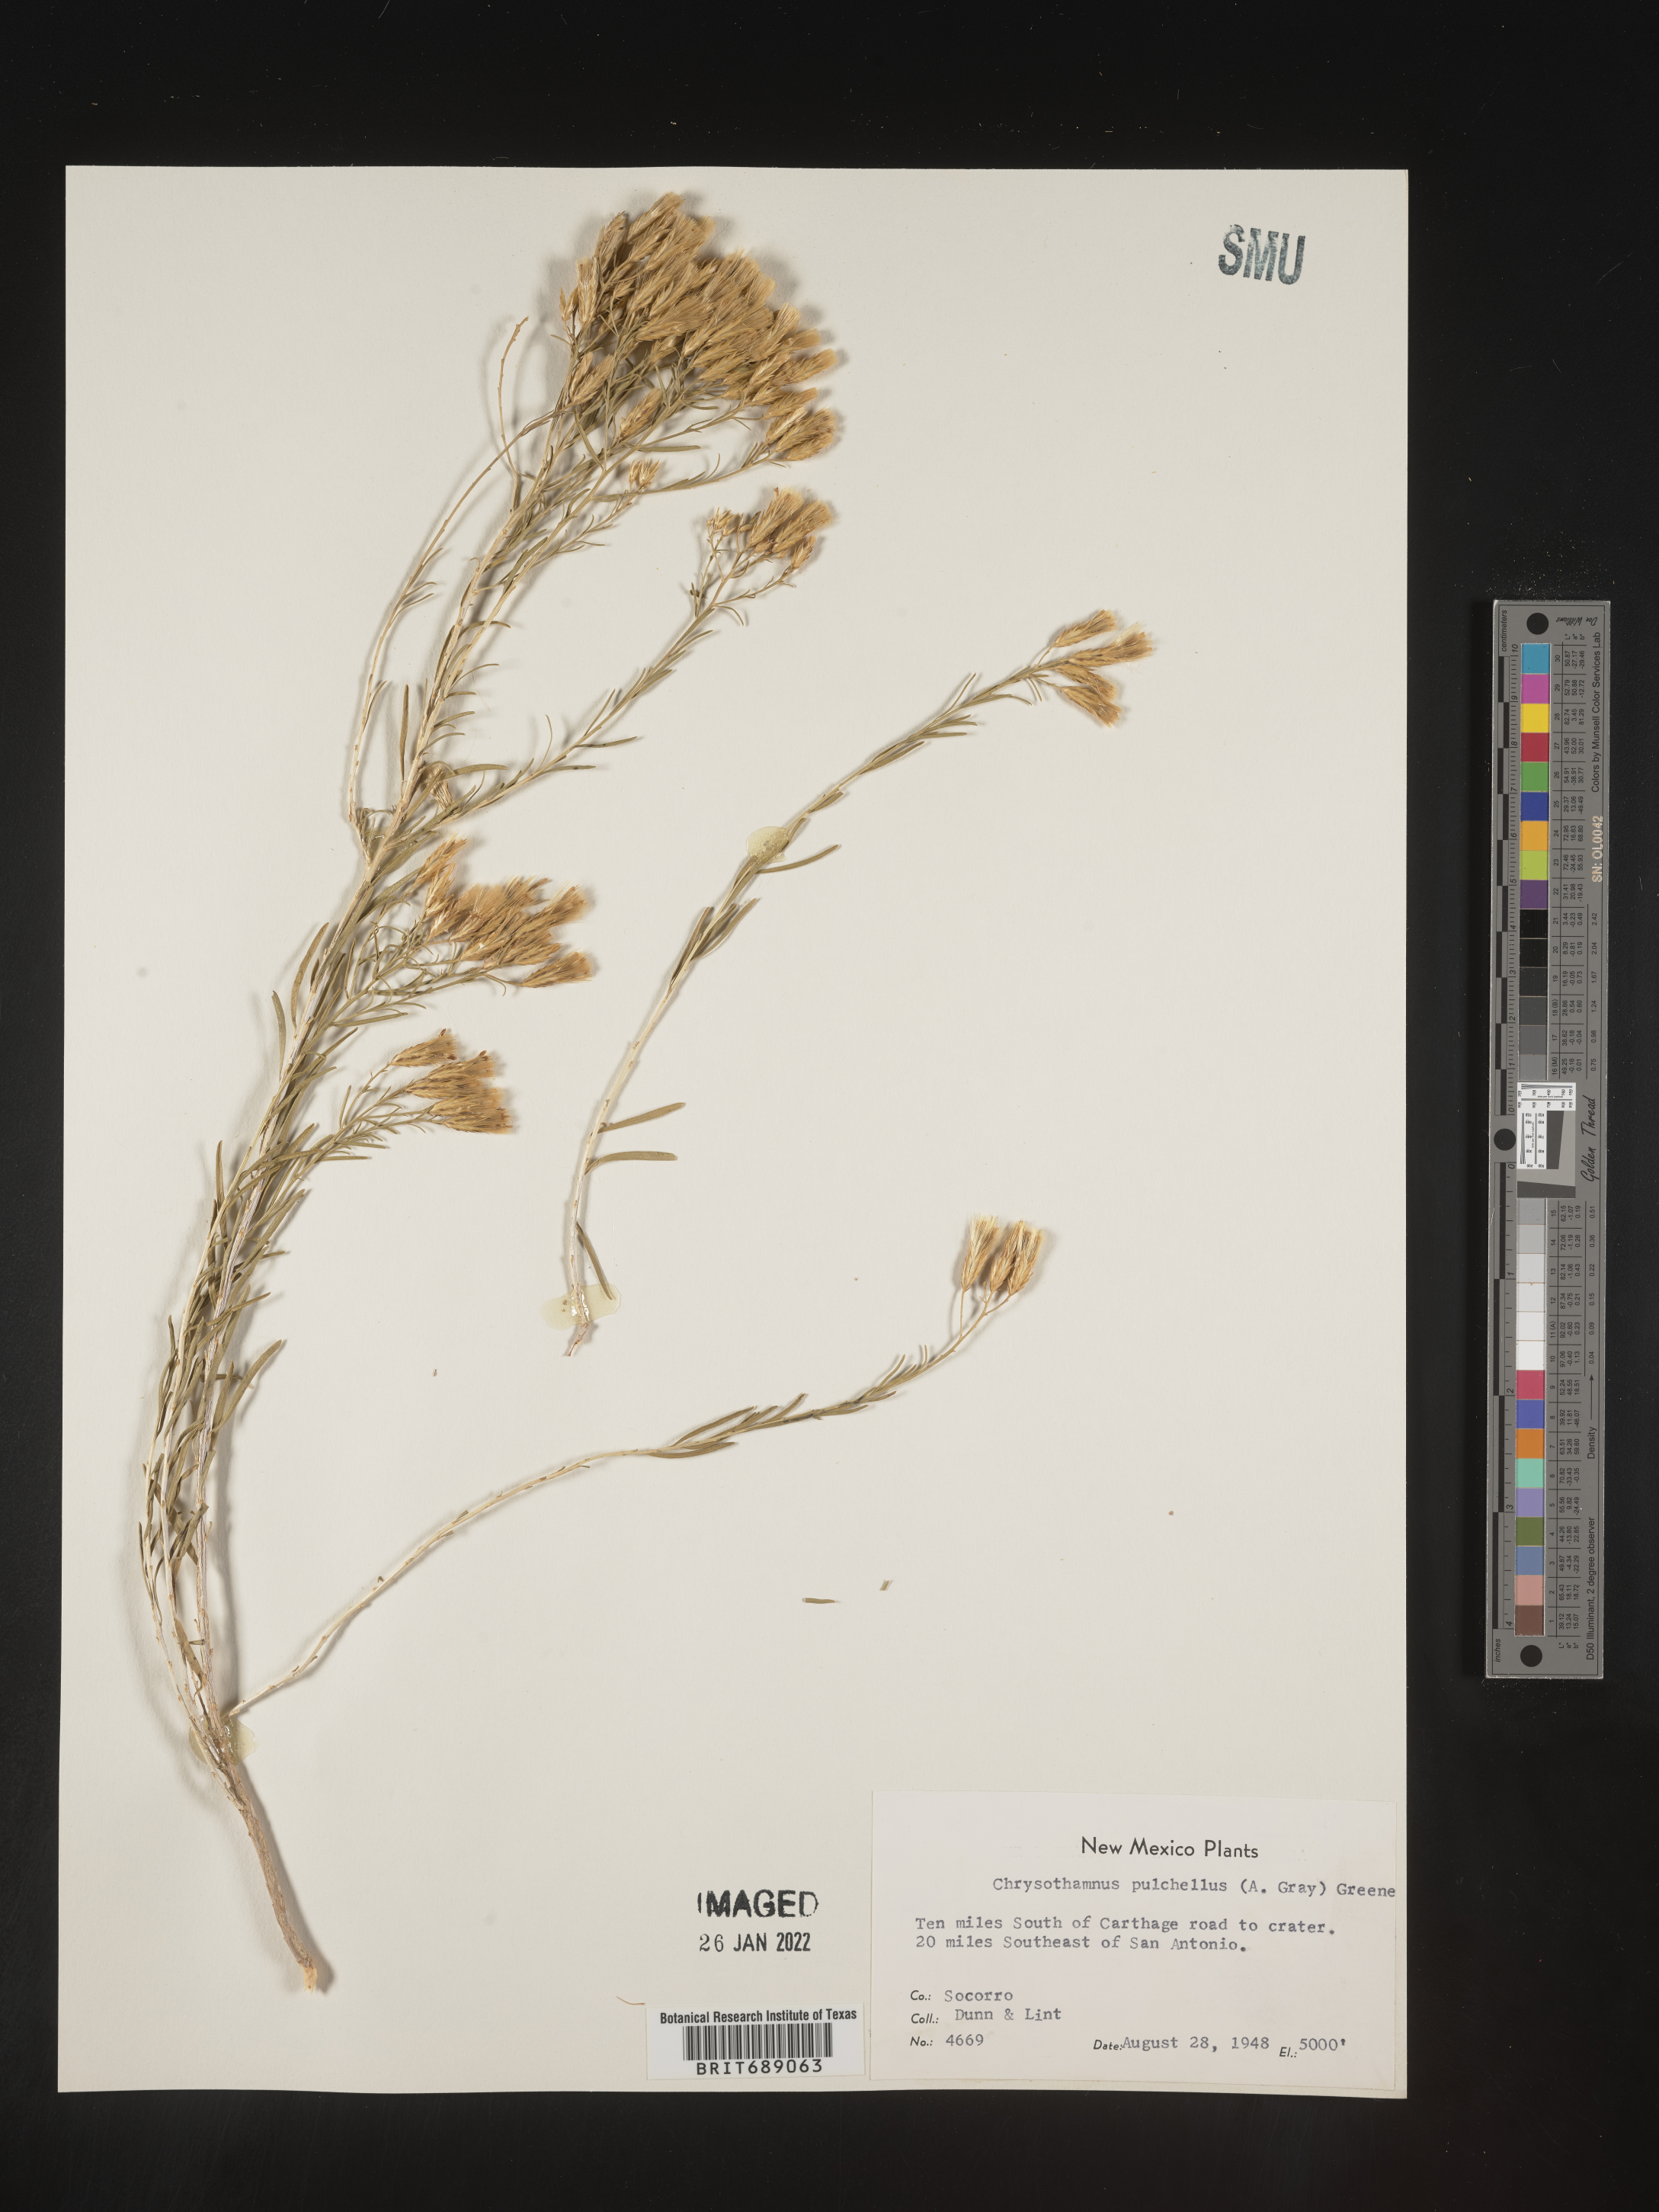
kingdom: Plantae
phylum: Tracheophyta
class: Magnoliopsida
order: Asterales
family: Asteraceae
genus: Lorandersonia
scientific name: Lorandersonia pulchella
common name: Southwestern rabbitbrush
